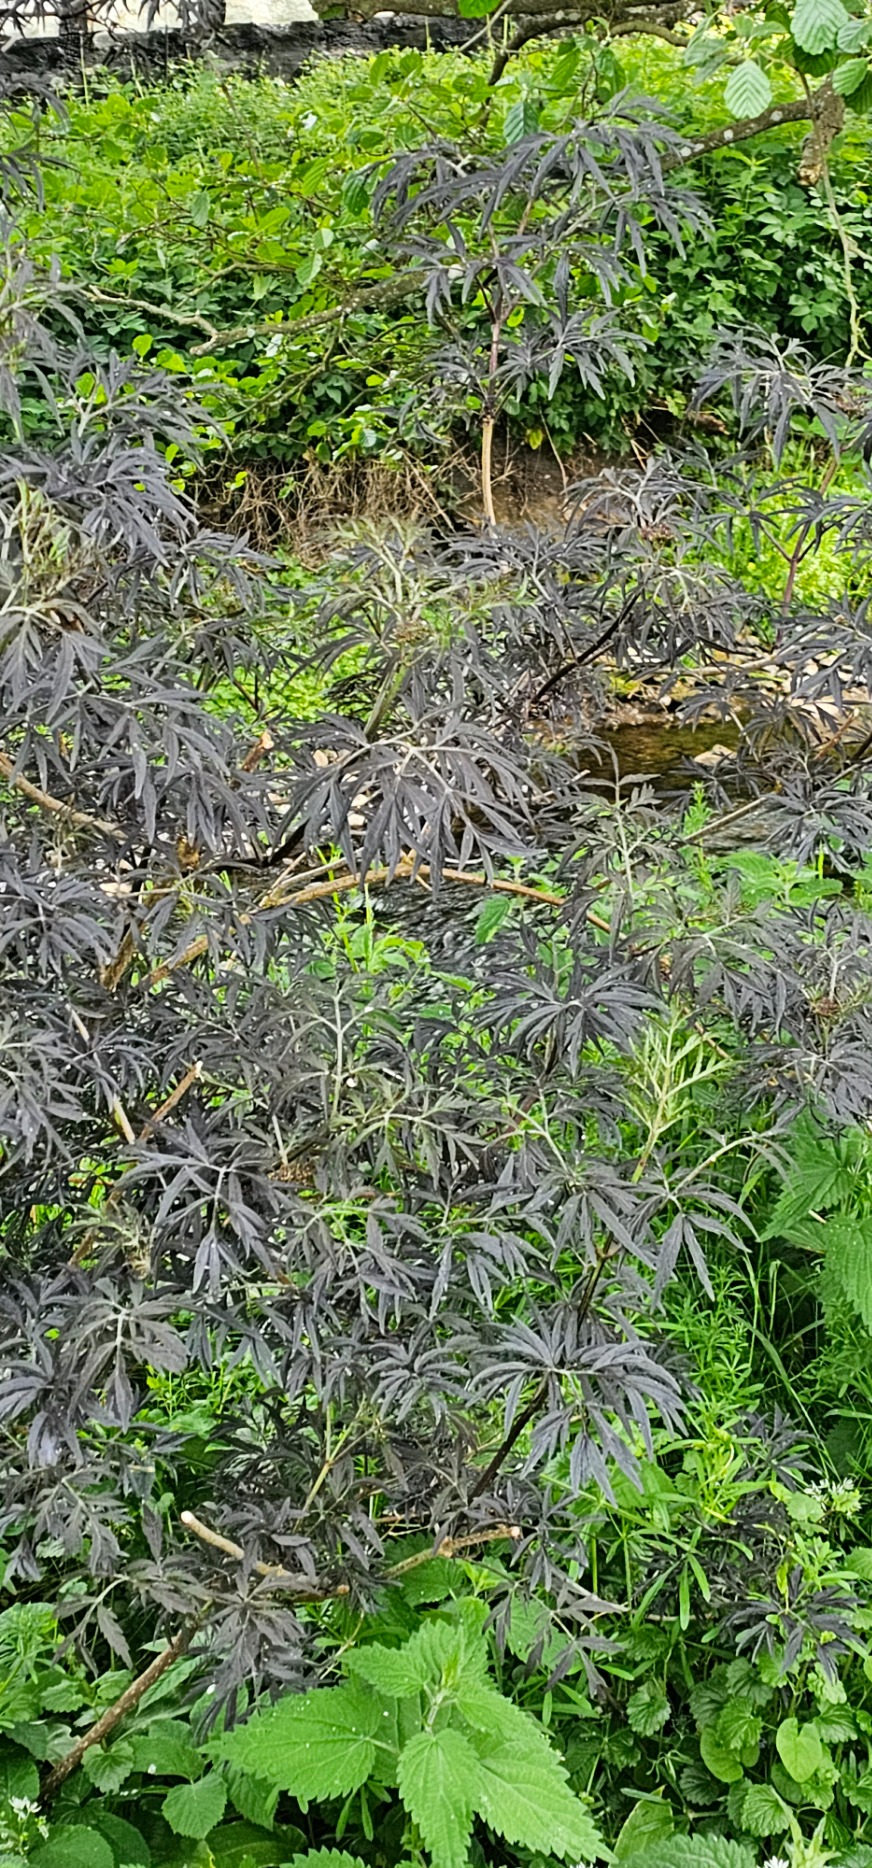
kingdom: Plantae
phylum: Tracheophyta
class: Magnoliopsida
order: Dipsacales
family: Viburnaceae
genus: Sambucus
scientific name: Sambucus nigra
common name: Almindelig hyld
